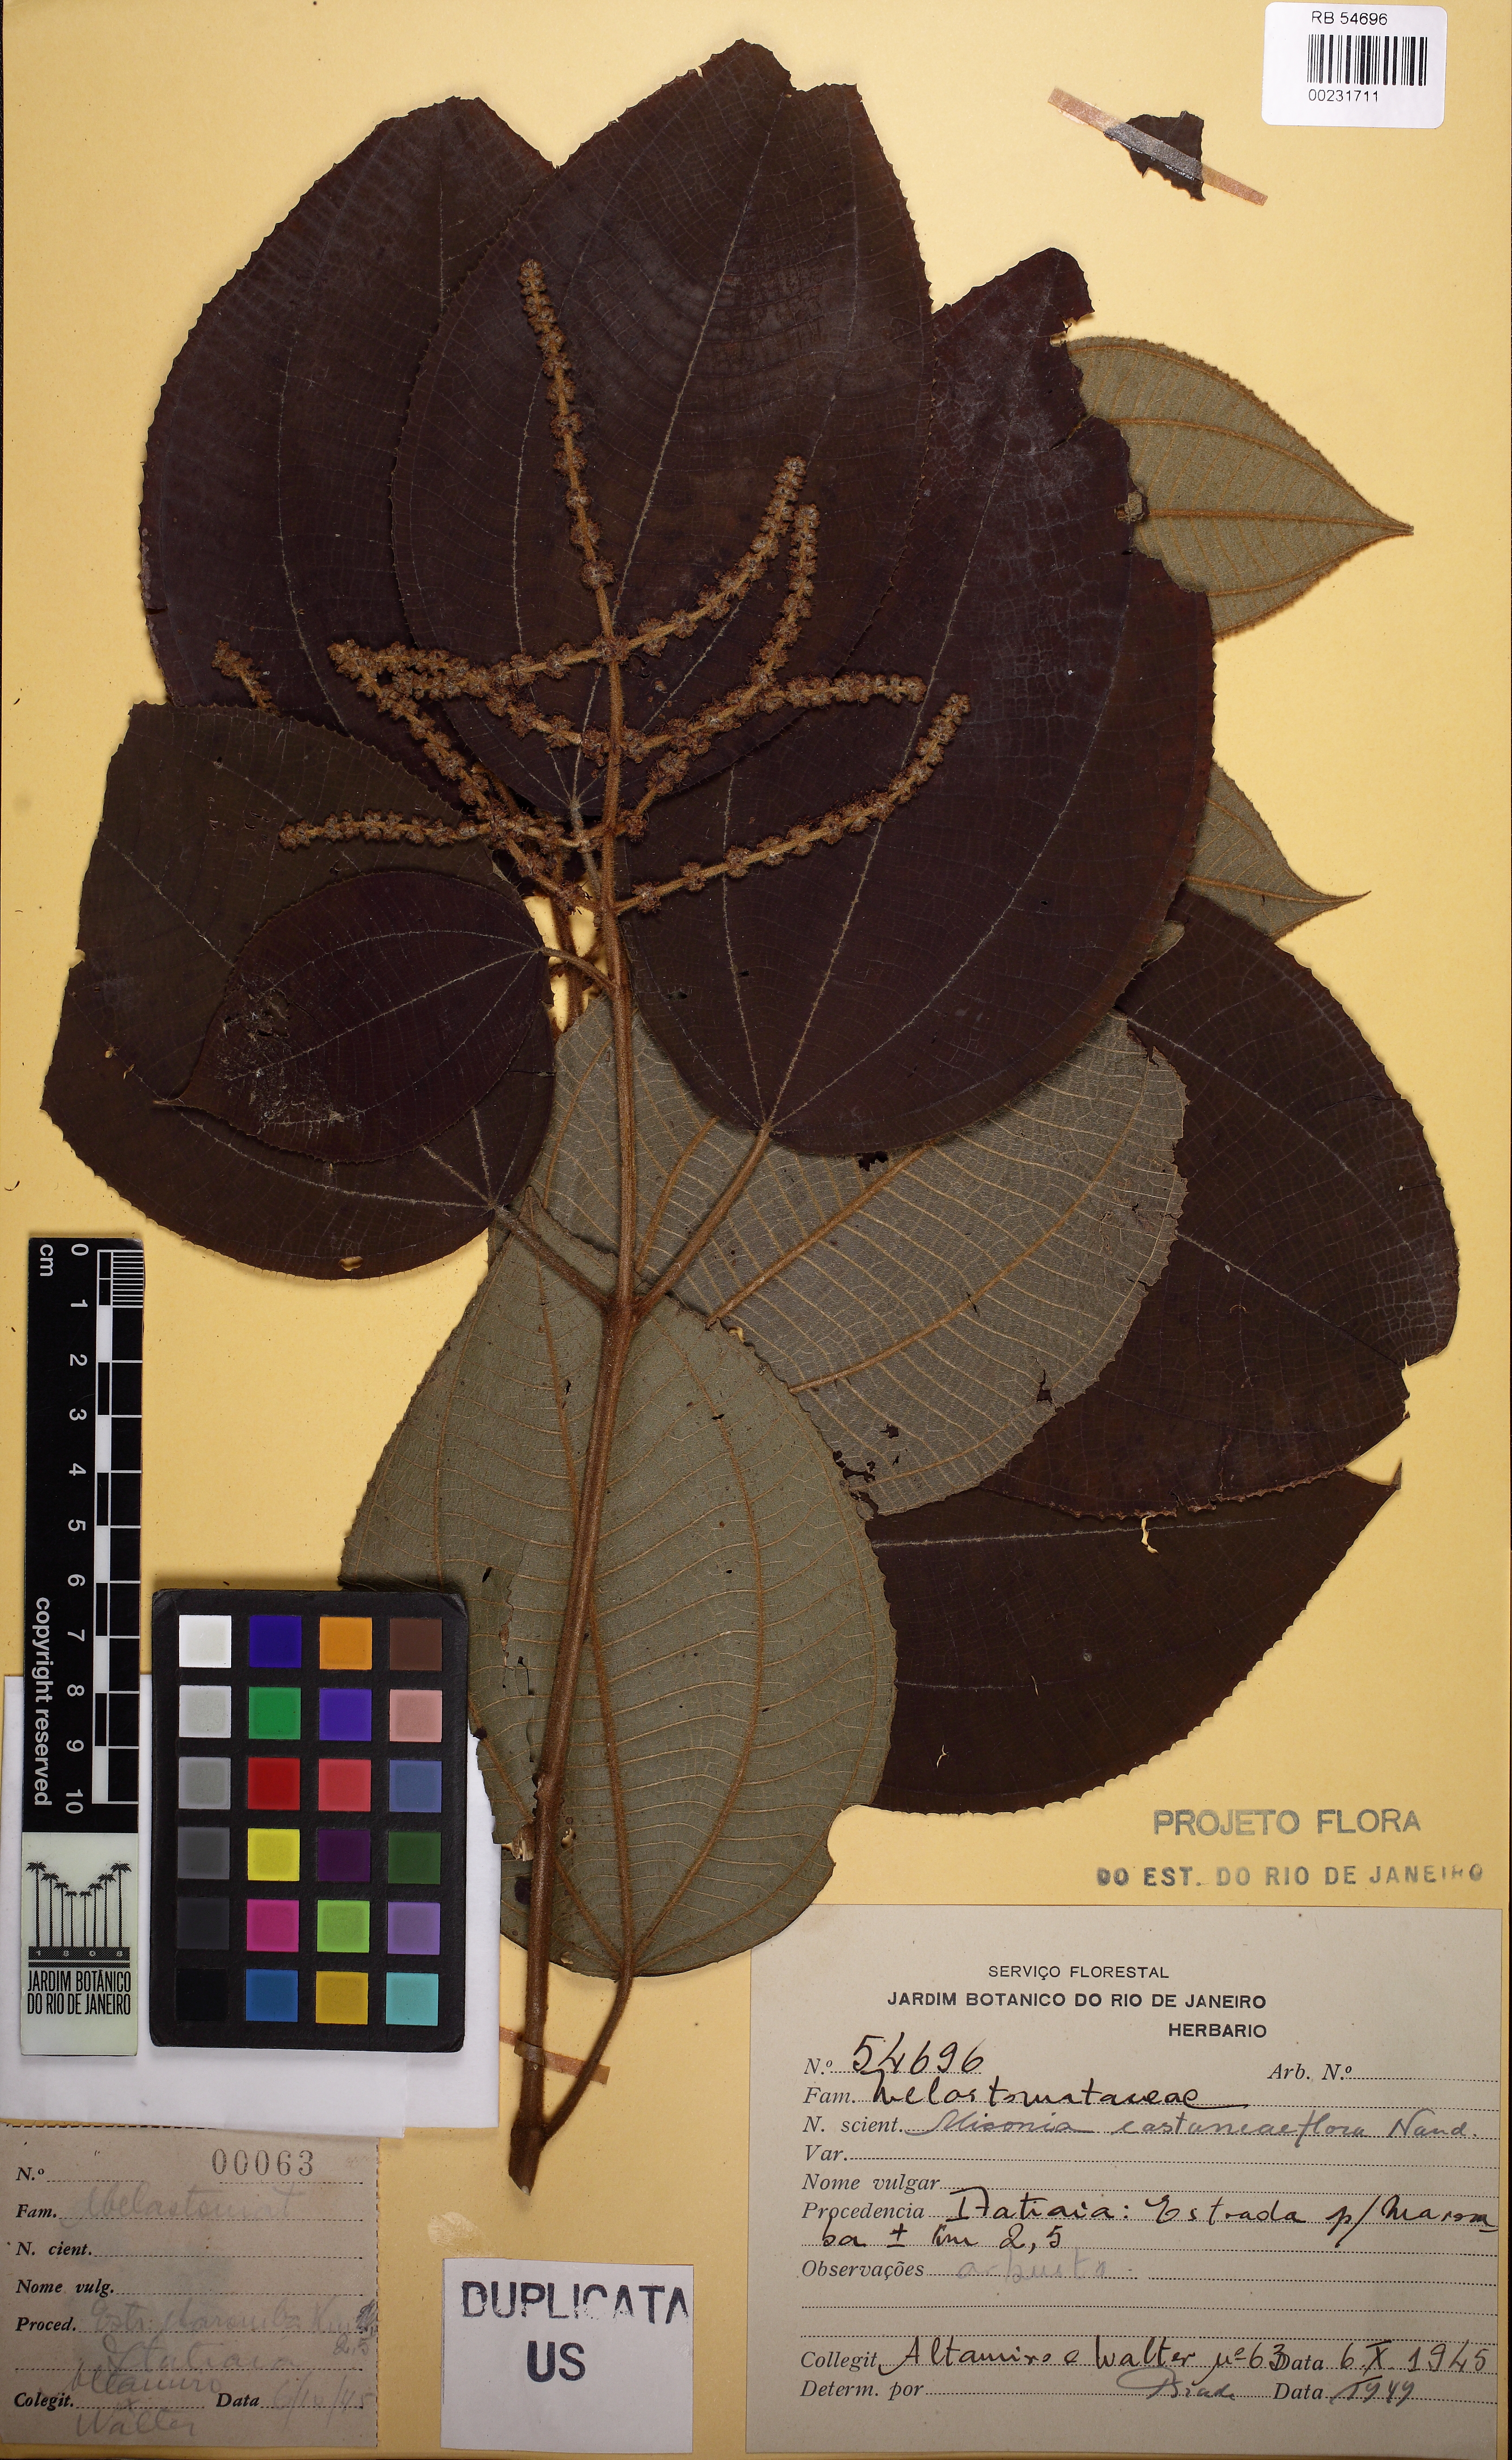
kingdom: Plantae
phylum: Tracheophyta
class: Magnoliopsida
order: Myrtales
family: Melastomataceae
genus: Miconia
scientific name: Miconia castaneifolia
